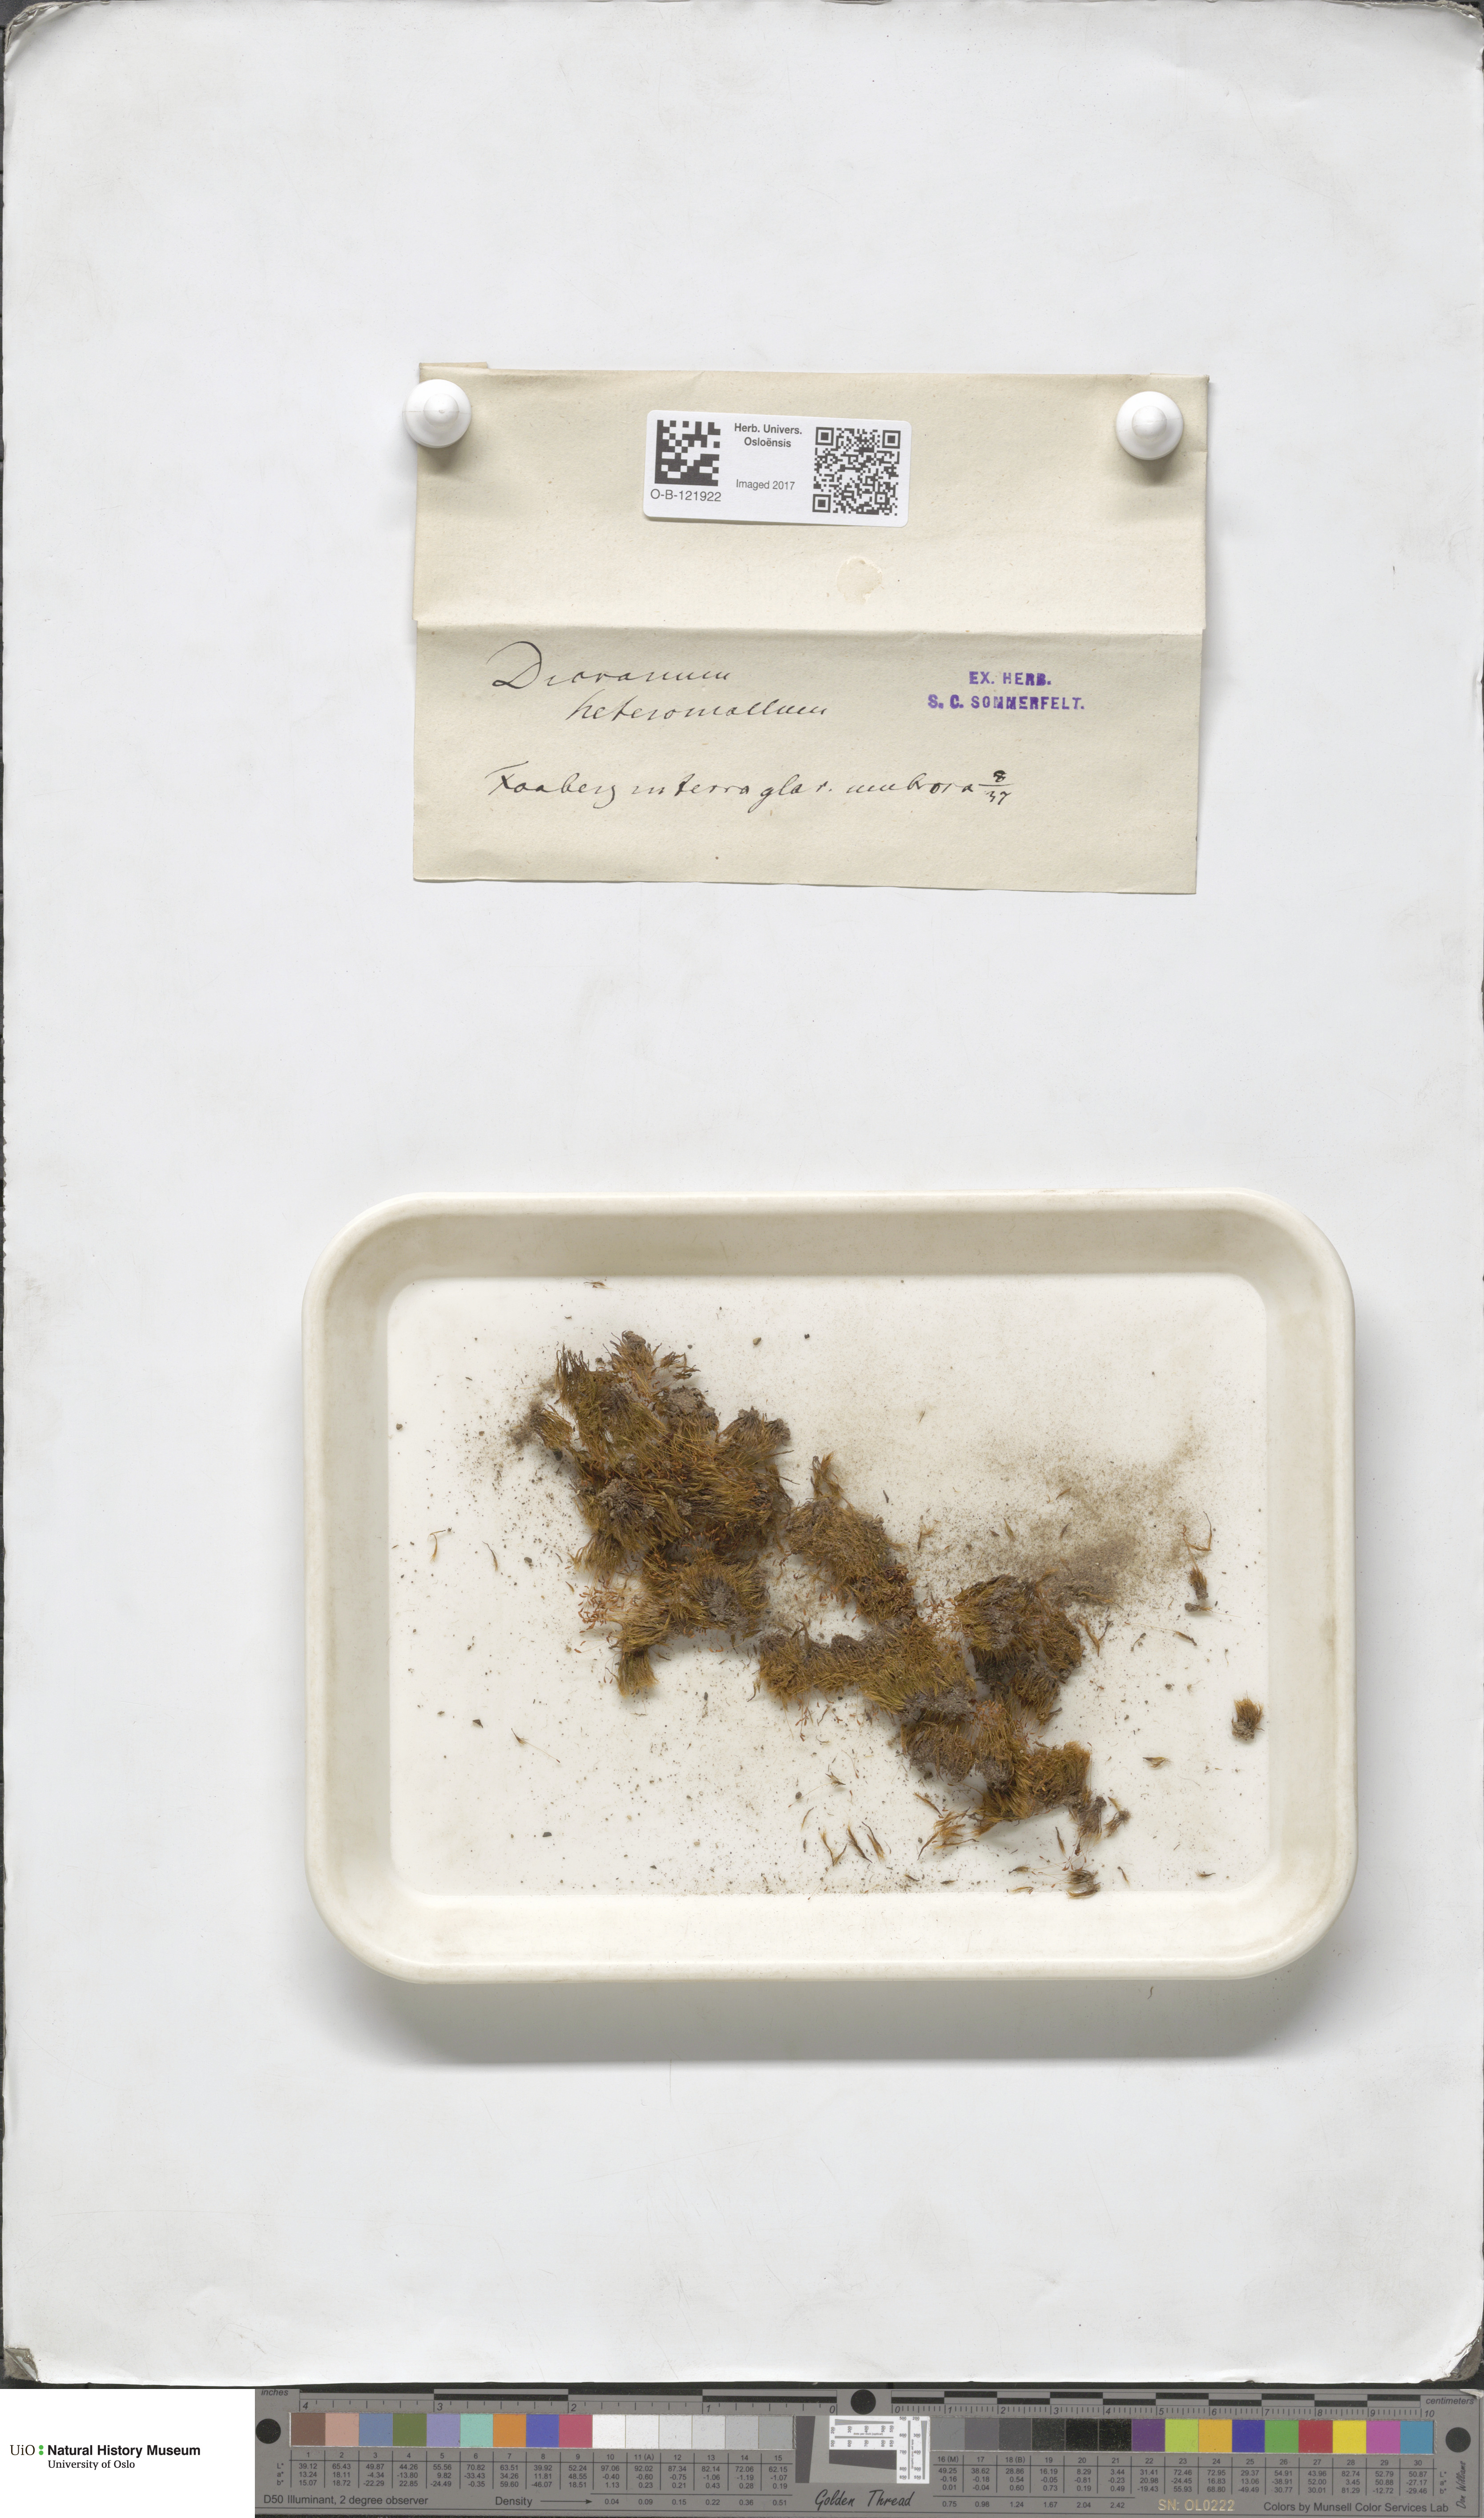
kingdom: Plantae
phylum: Bryophyta
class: Bryopsida
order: Dicranales
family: Dicranellaceae
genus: Dicranella
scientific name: Dicranella heteromalla
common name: Silky forklet moss
